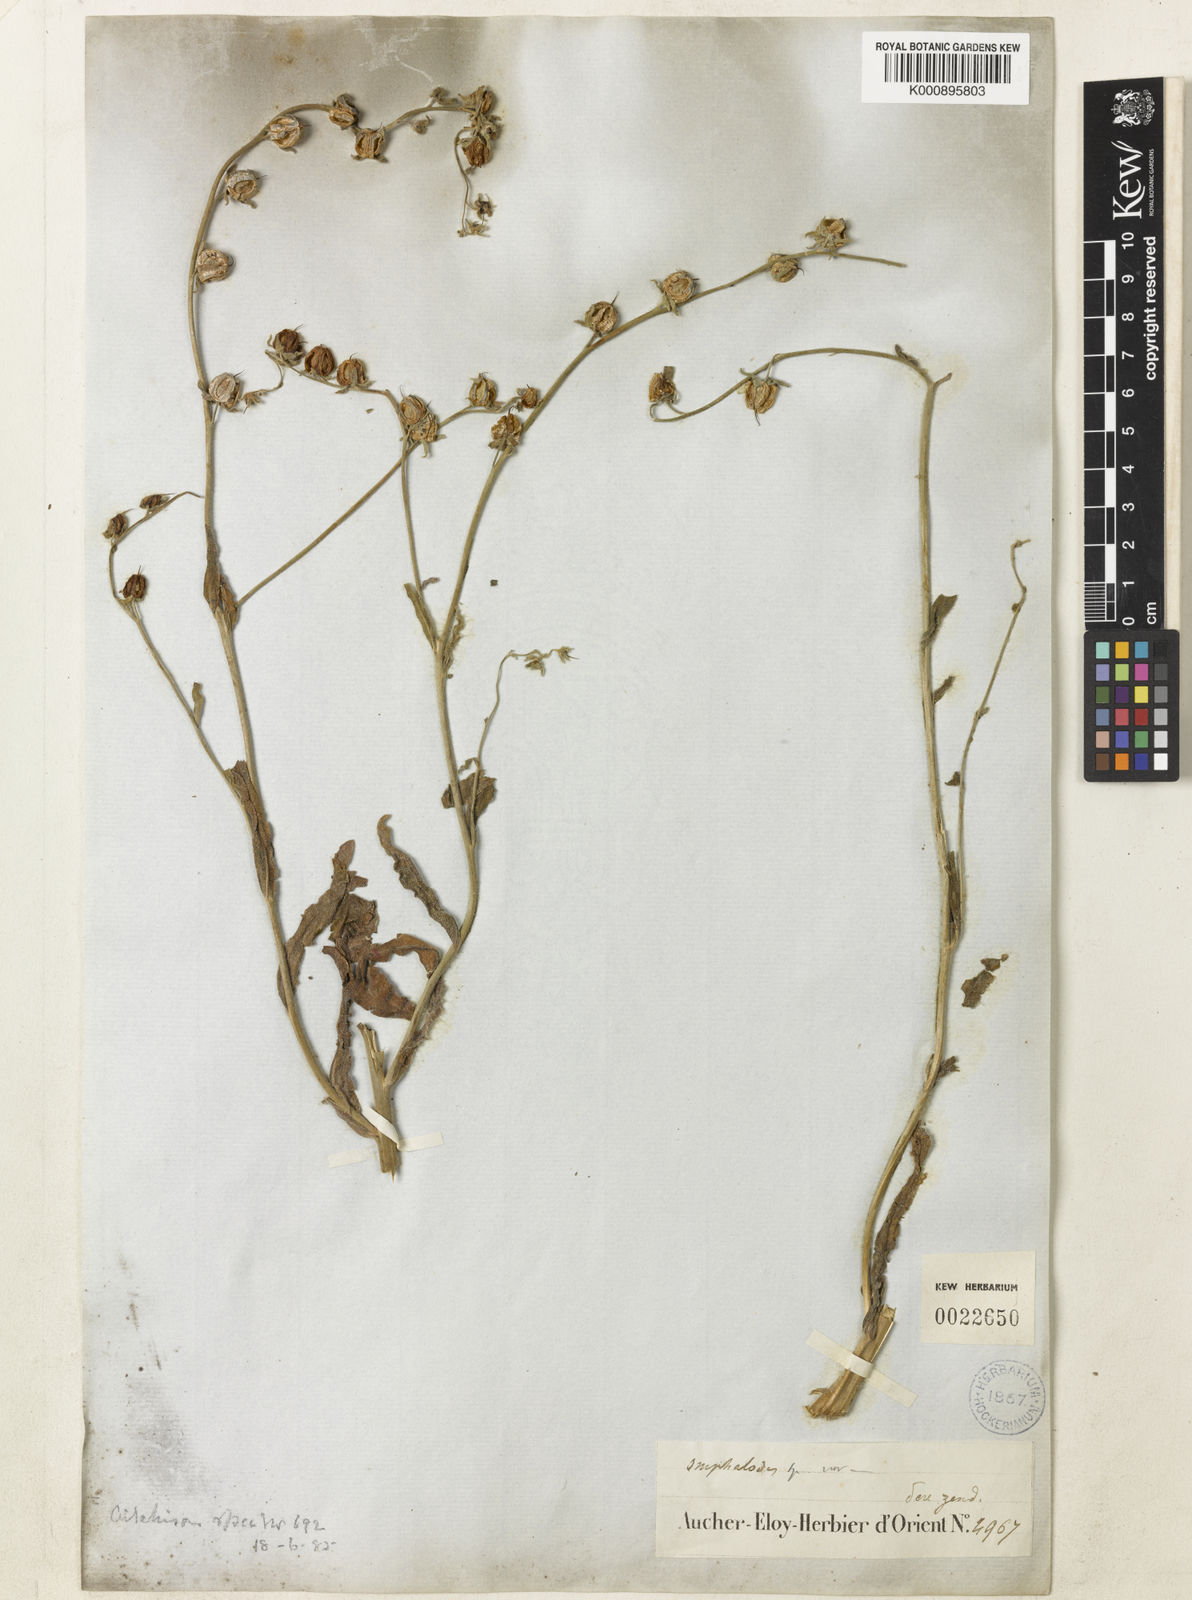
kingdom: Plantae
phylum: Tracheophyta
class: Magnoliopsida
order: Boraginales
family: Boraginaceae
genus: Paracaryum
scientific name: Paracaryum rugulosum
